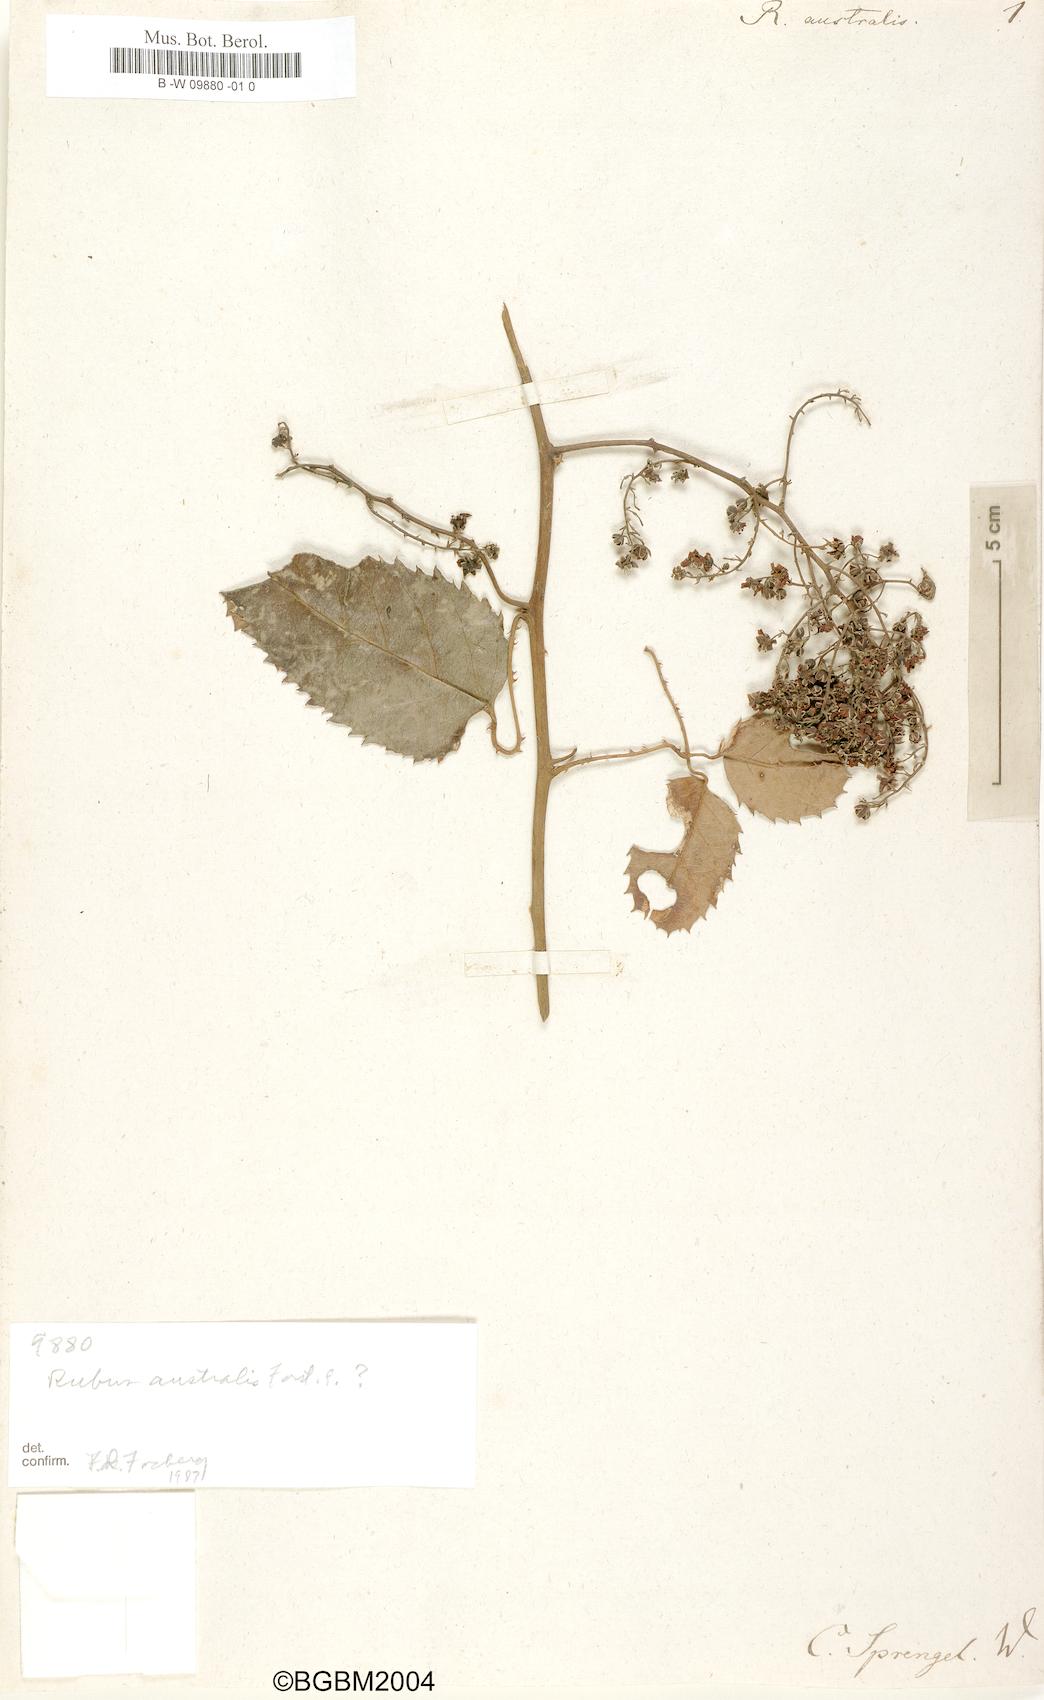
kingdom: Plantae
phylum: Tracheophyta
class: Magnoliopsida
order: Rosales
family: Rosaceae
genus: Rubus
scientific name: Rubus australis
